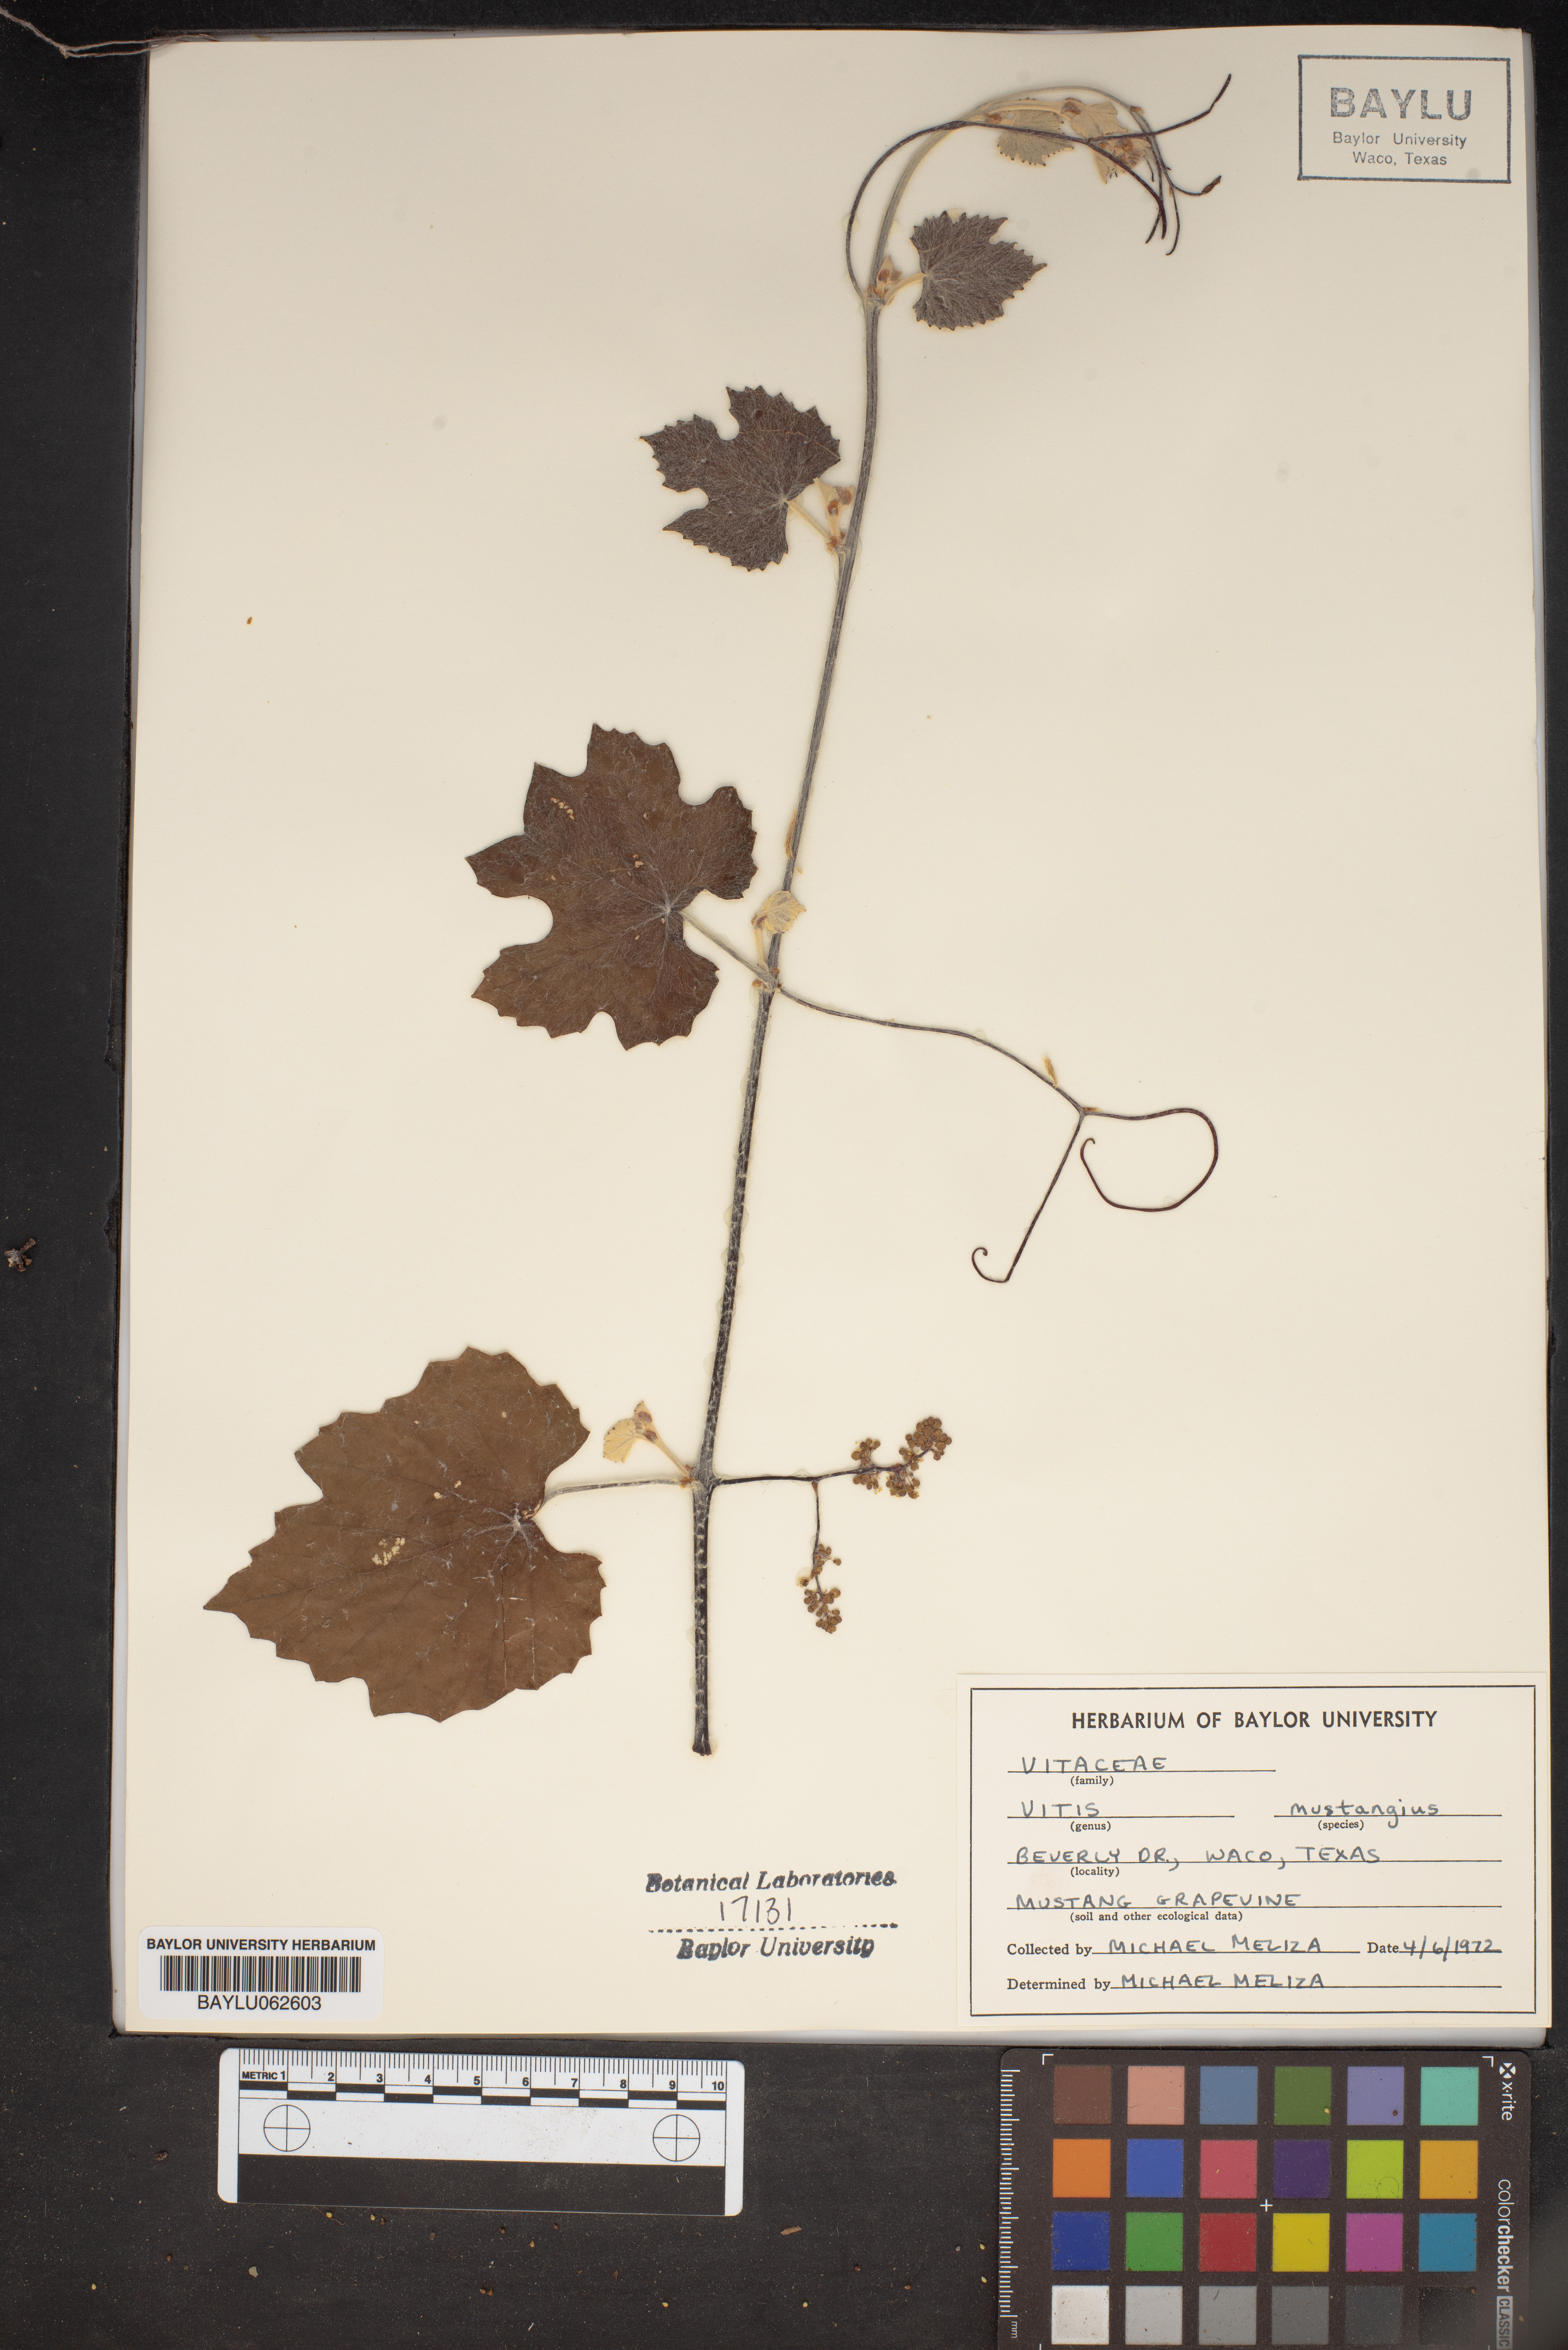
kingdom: Plantae
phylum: Tracheophyta
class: Magnoliopsida
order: Vitales
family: Vitaceae
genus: Vitis
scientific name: Vitis mustangensis
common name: Mustang grape
